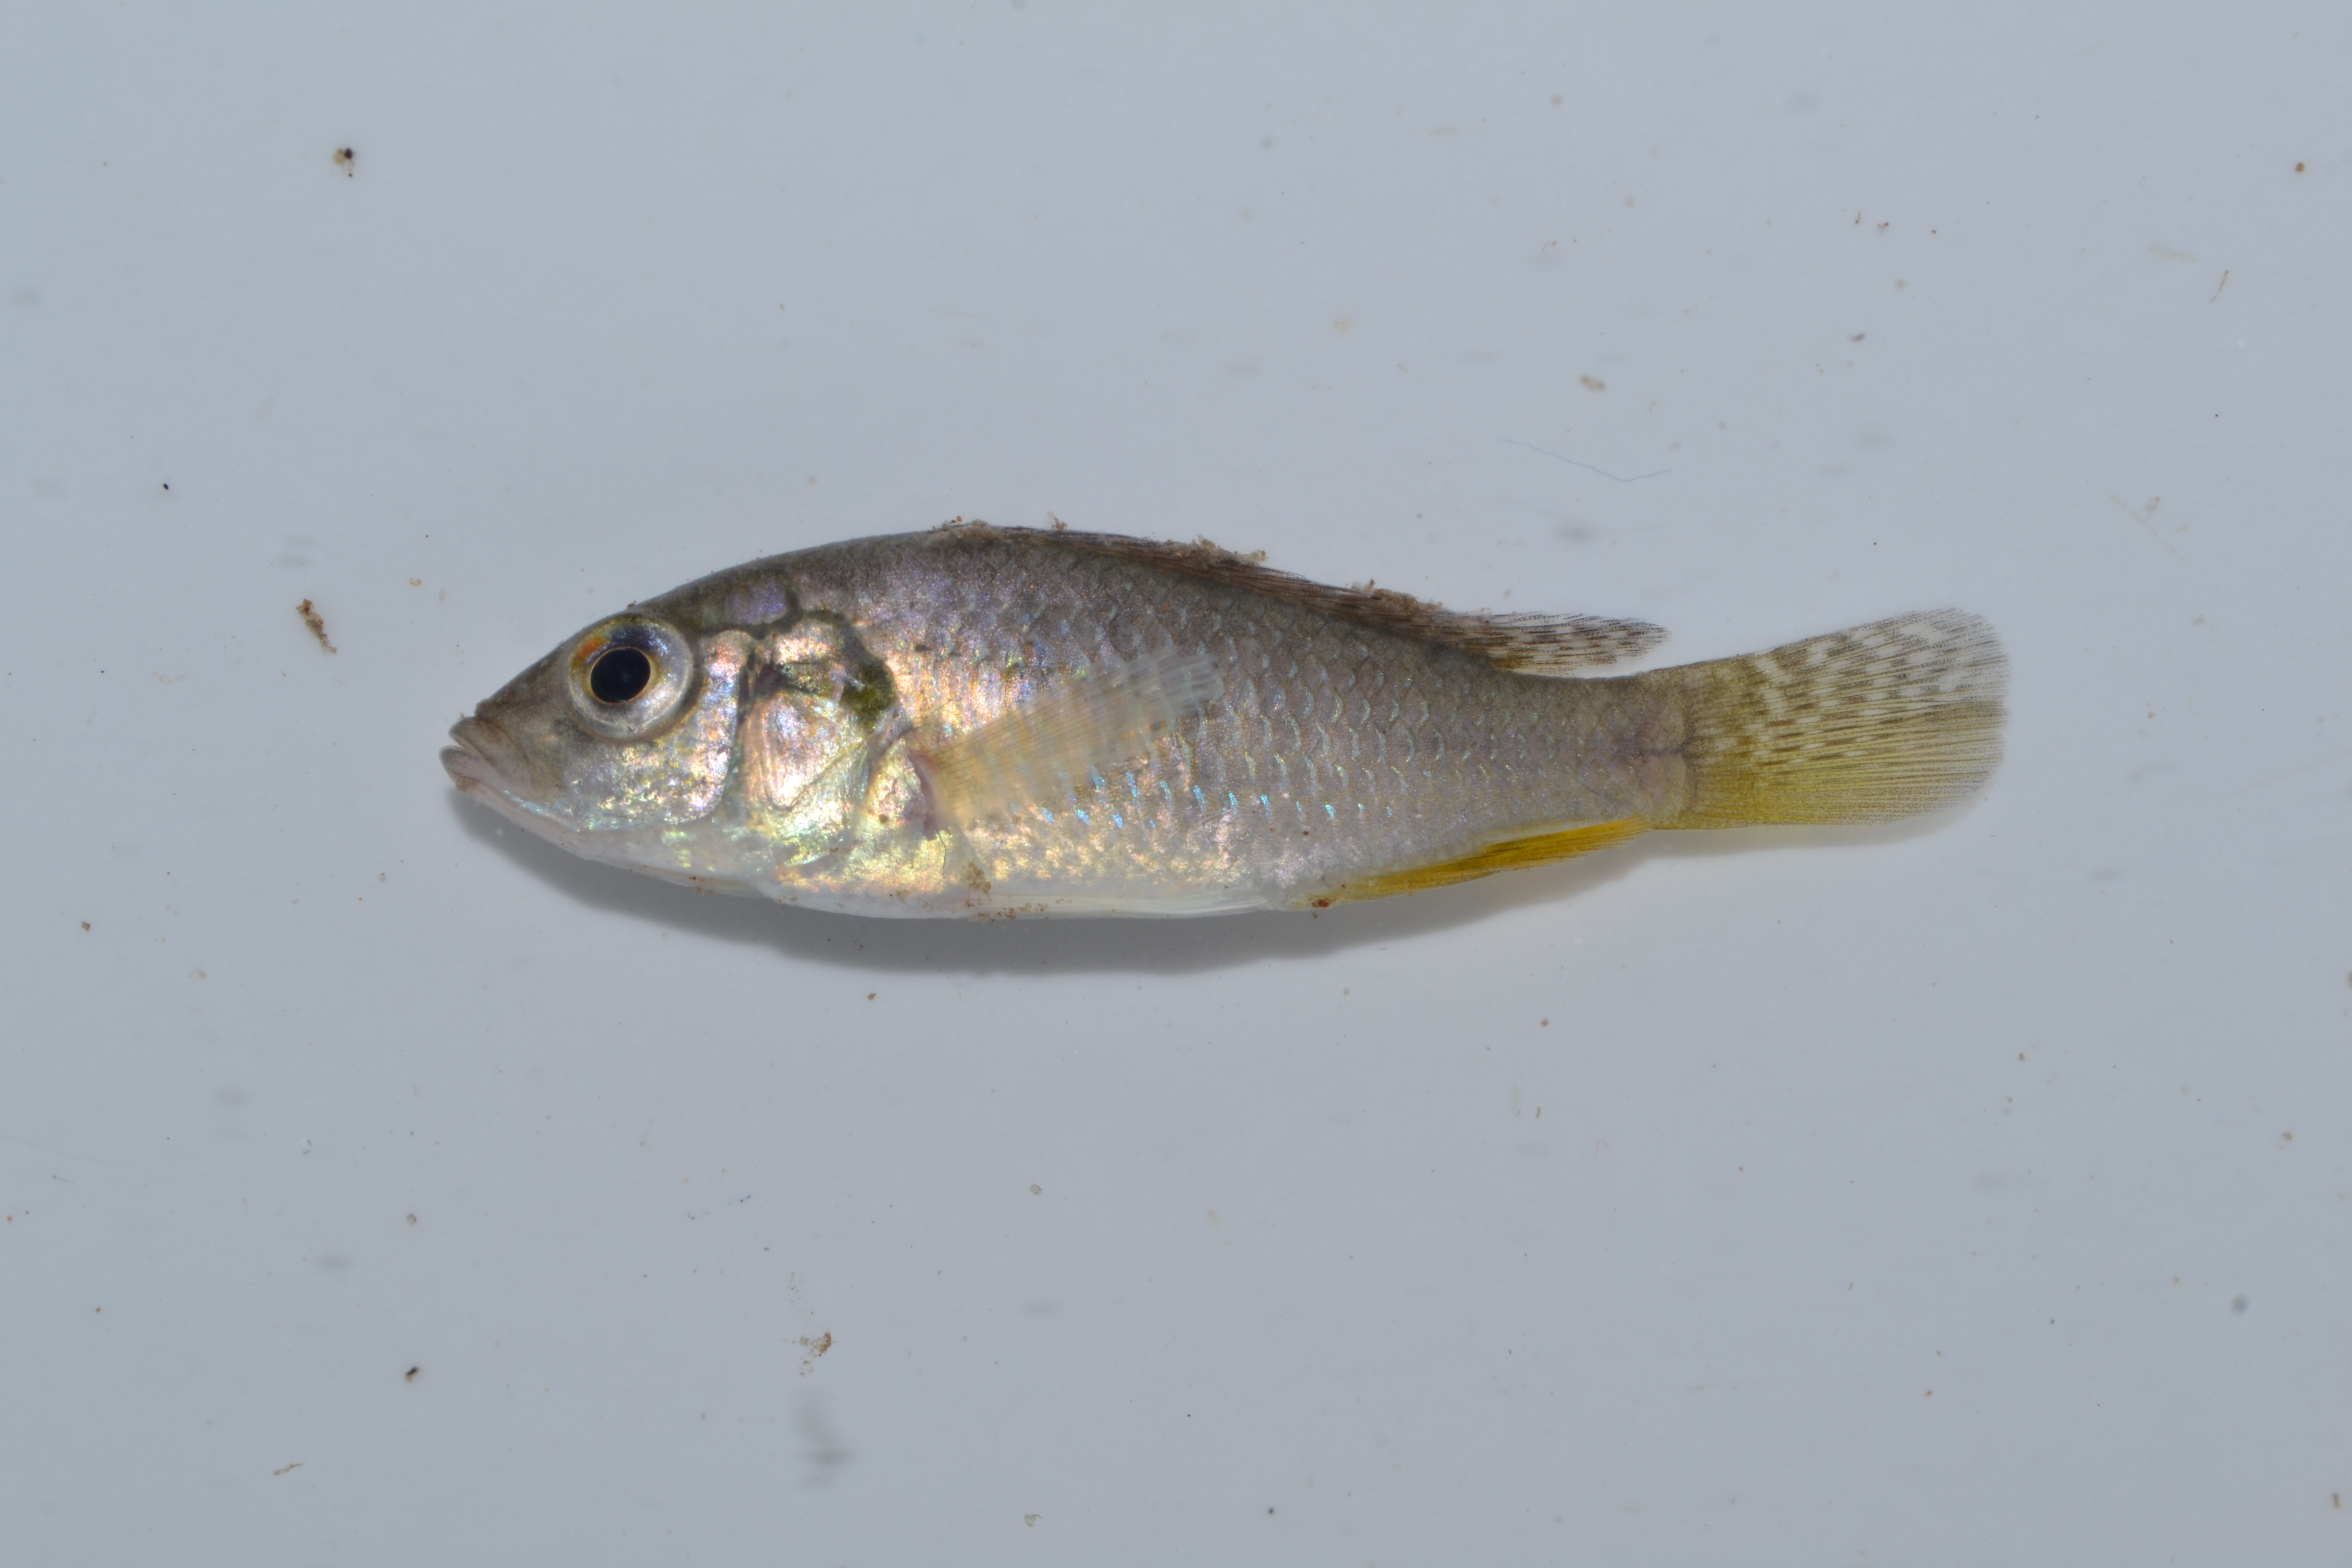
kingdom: Animalia
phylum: Chordata
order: Perciformes
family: Cichlidae
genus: Pseudocrenilabrus
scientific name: Pseudocrenilabrus philander
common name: Southern mouthbrooder
